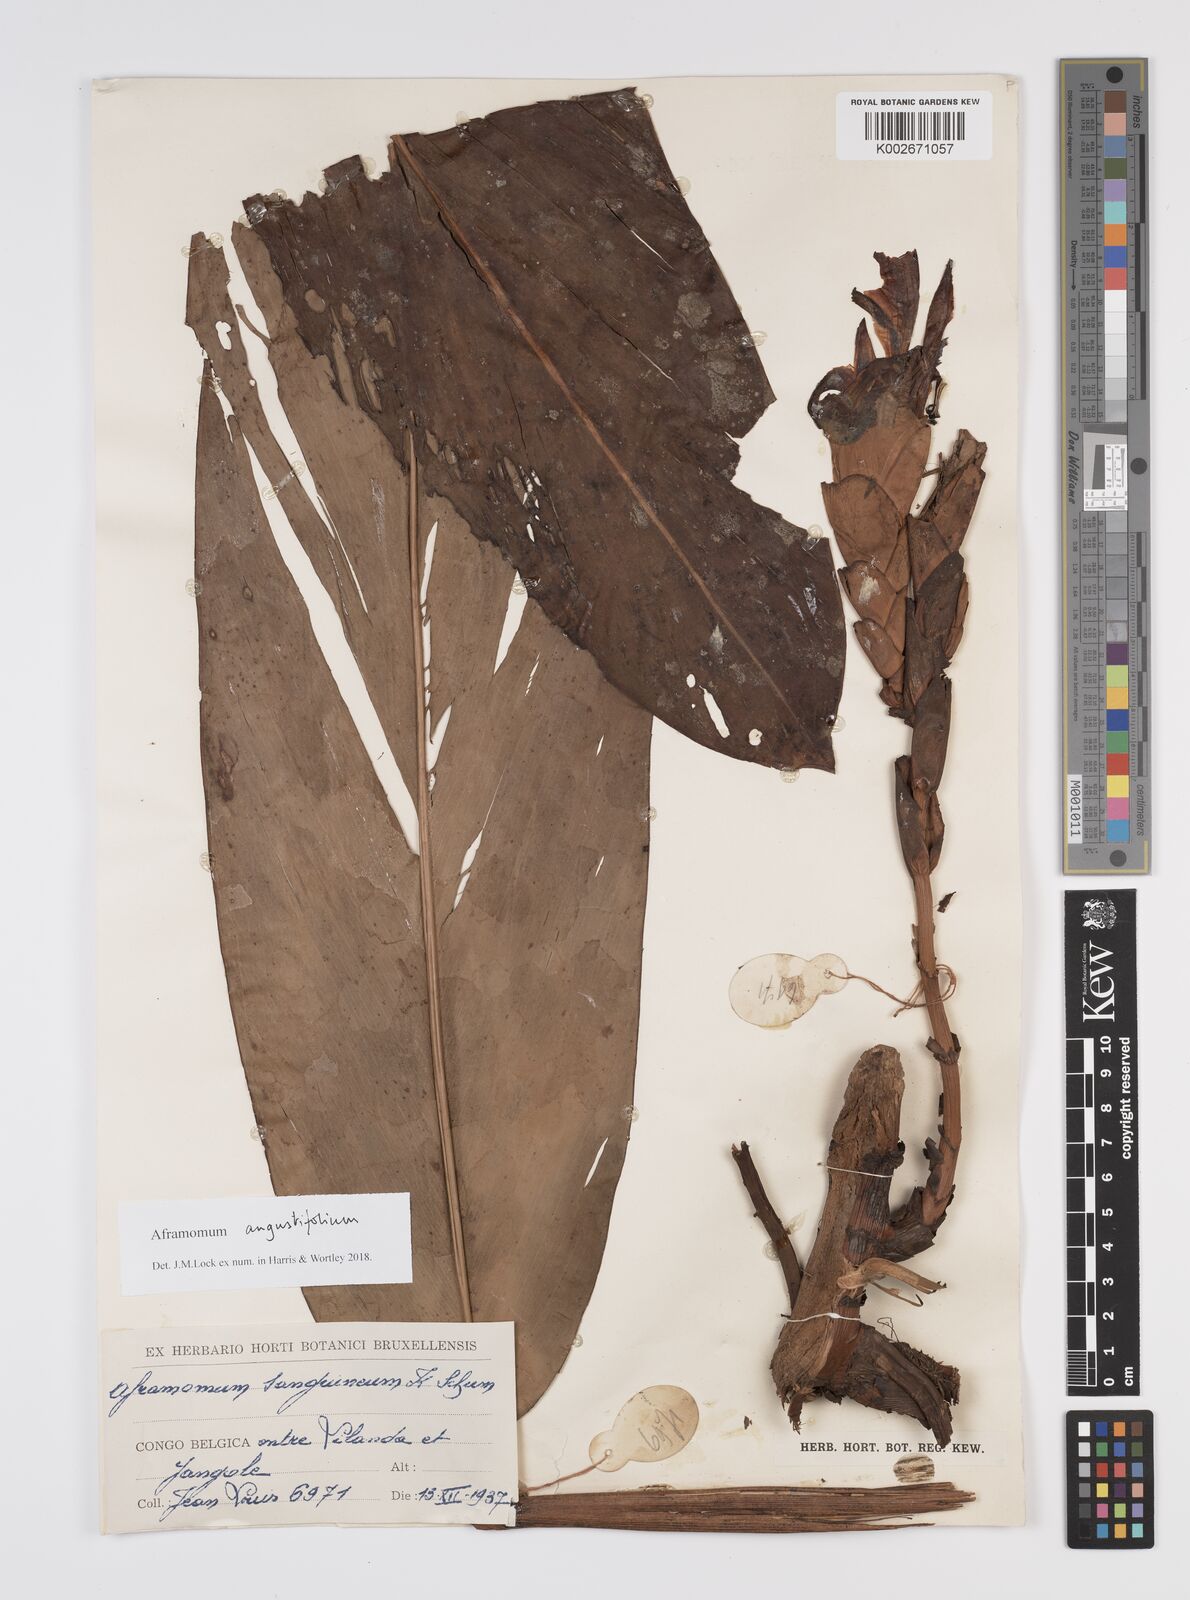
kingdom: Plantae
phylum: Tracheophyta
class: Liliopsida
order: Zingiberales
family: Zingiberaceae
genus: Aframomum
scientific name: Aframomum angustifolium
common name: Guinea grains
